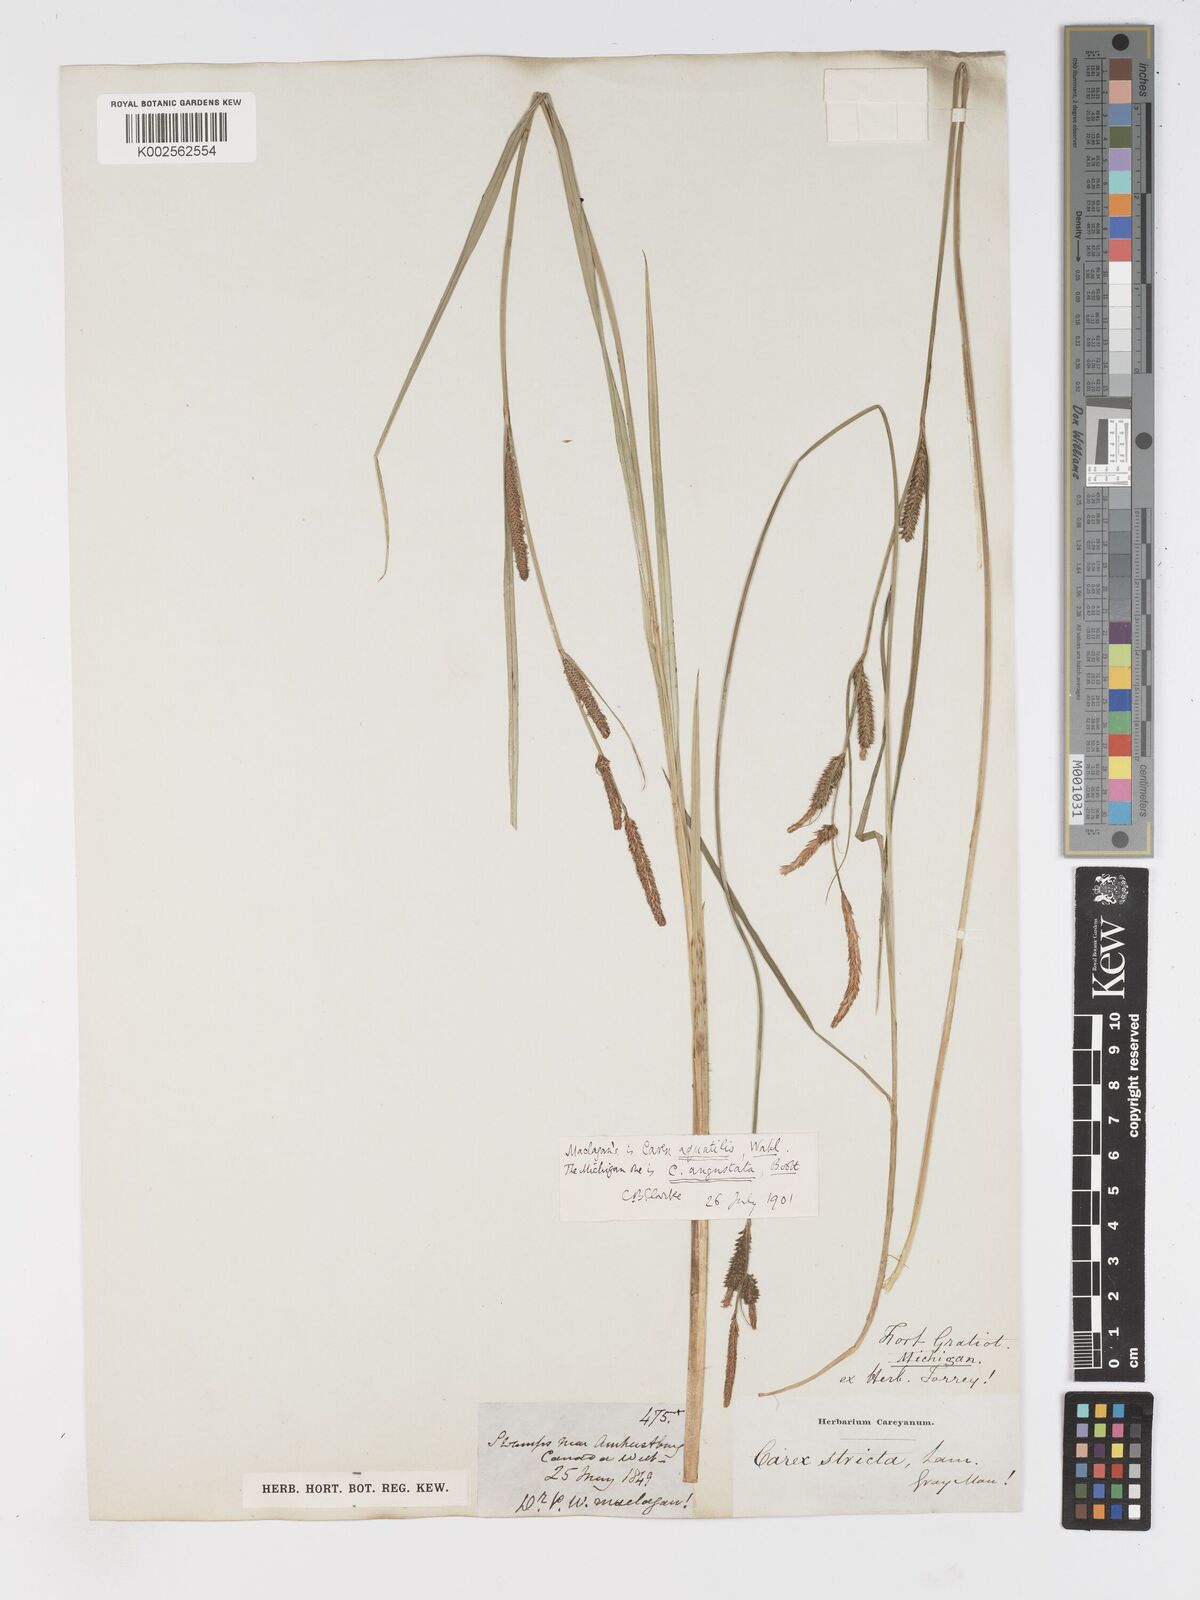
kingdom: Plantae
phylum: Tracheophyta
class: Liliopsida
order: Poales
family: Cyperaceae
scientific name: Cyperaceae
